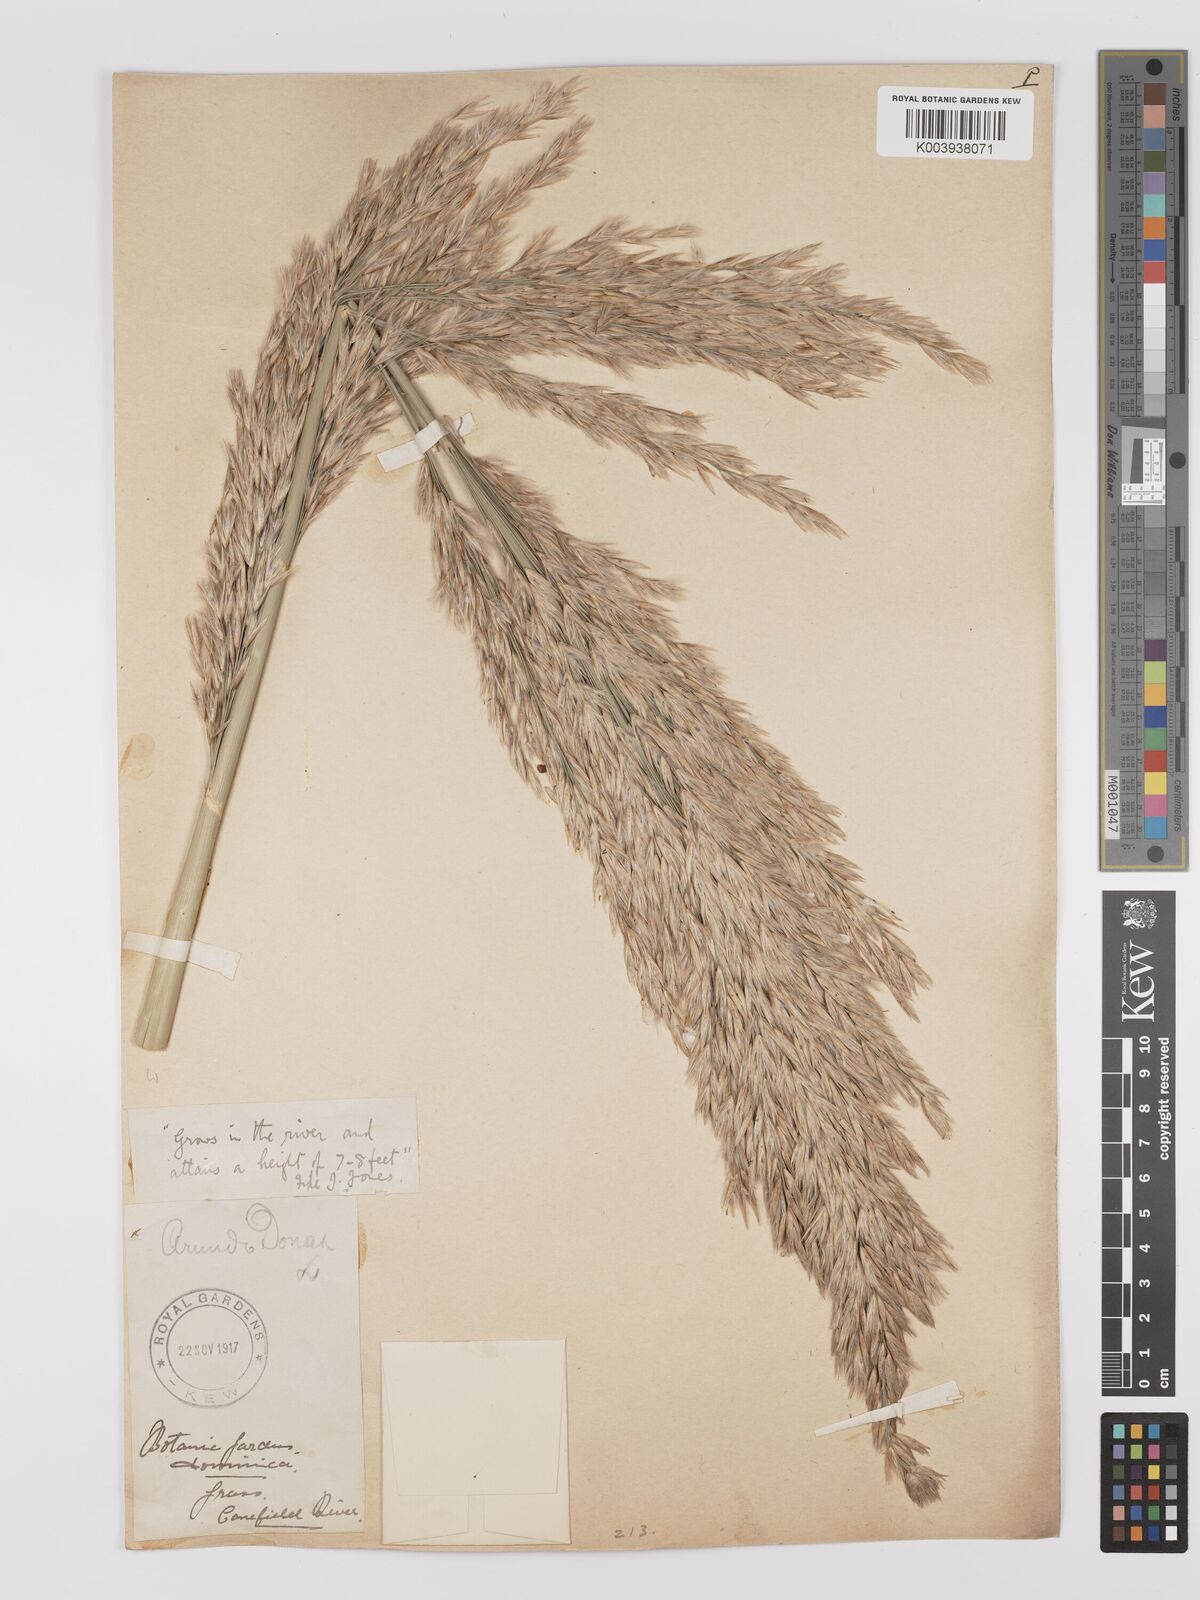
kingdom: Plantae
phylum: Tracheophyta
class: Liliopsida
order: Poales
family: Poaceae
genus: Arundo
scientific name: Arundo donax
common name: Giant reed
